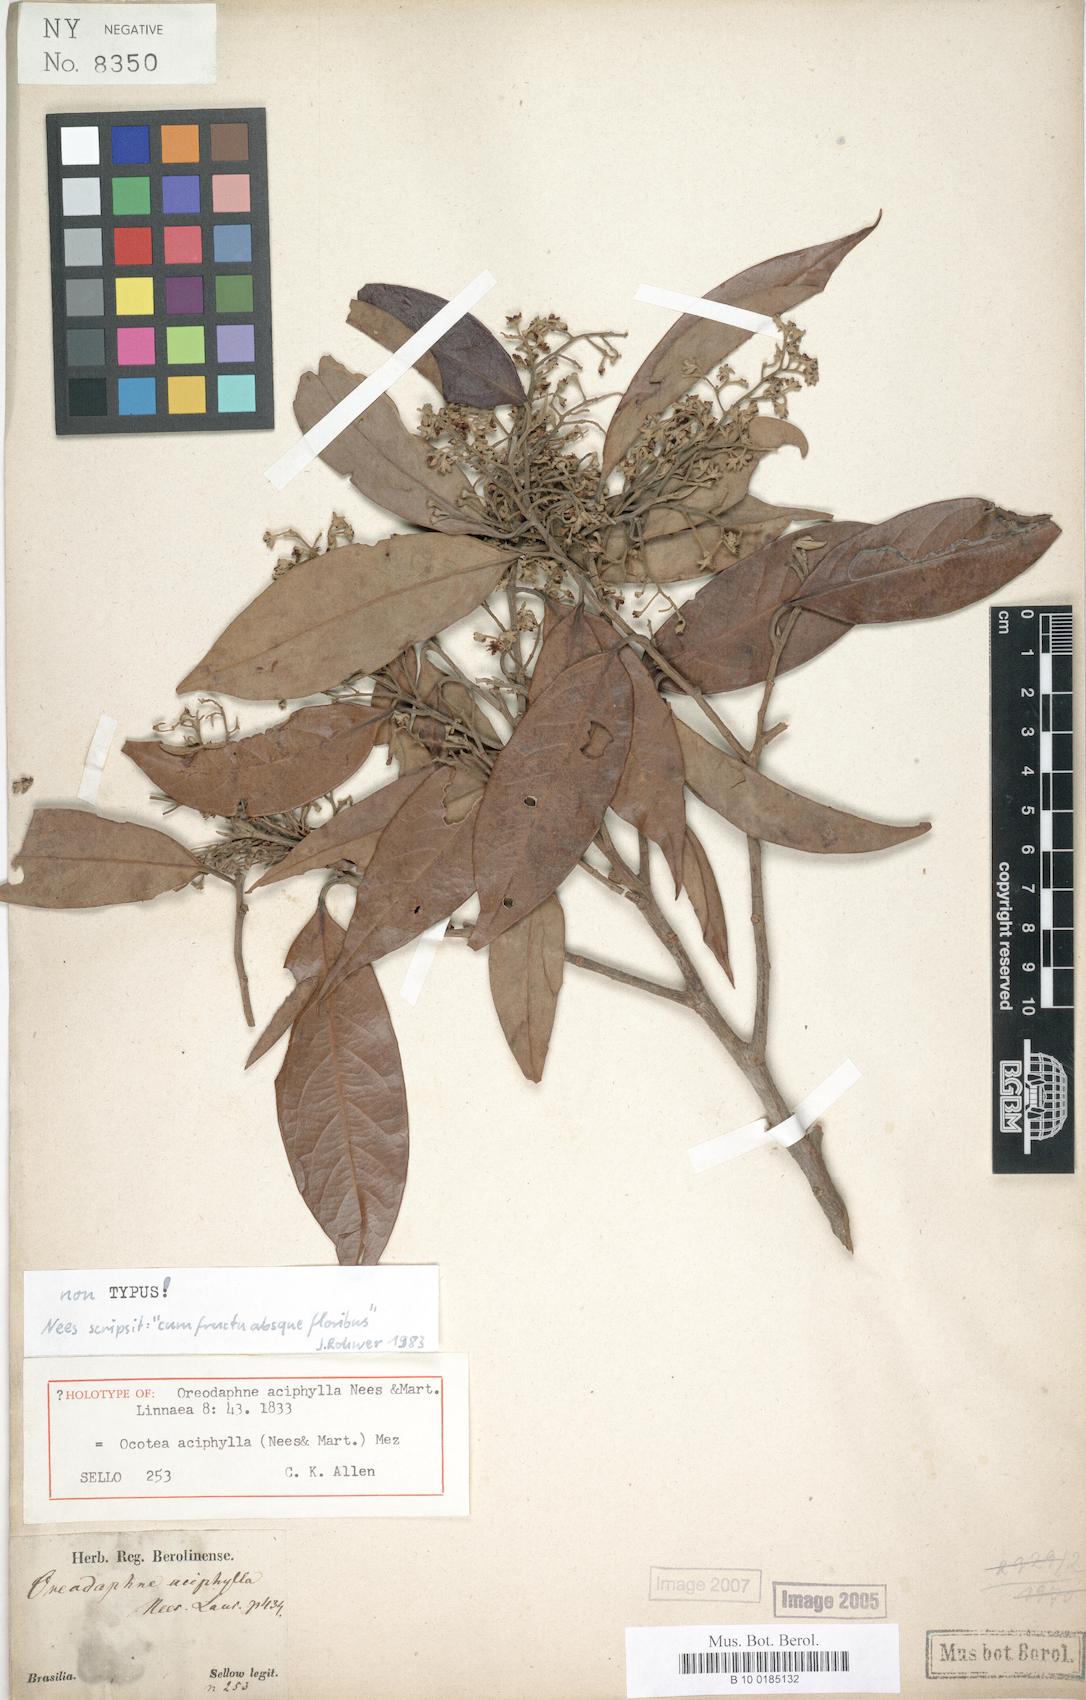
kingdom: Plantae
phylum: Tracheophyta
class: Magnoliopsida
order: Laurales
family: Lauraceae
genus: Ocotea
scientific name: Ocotea aciphylla
